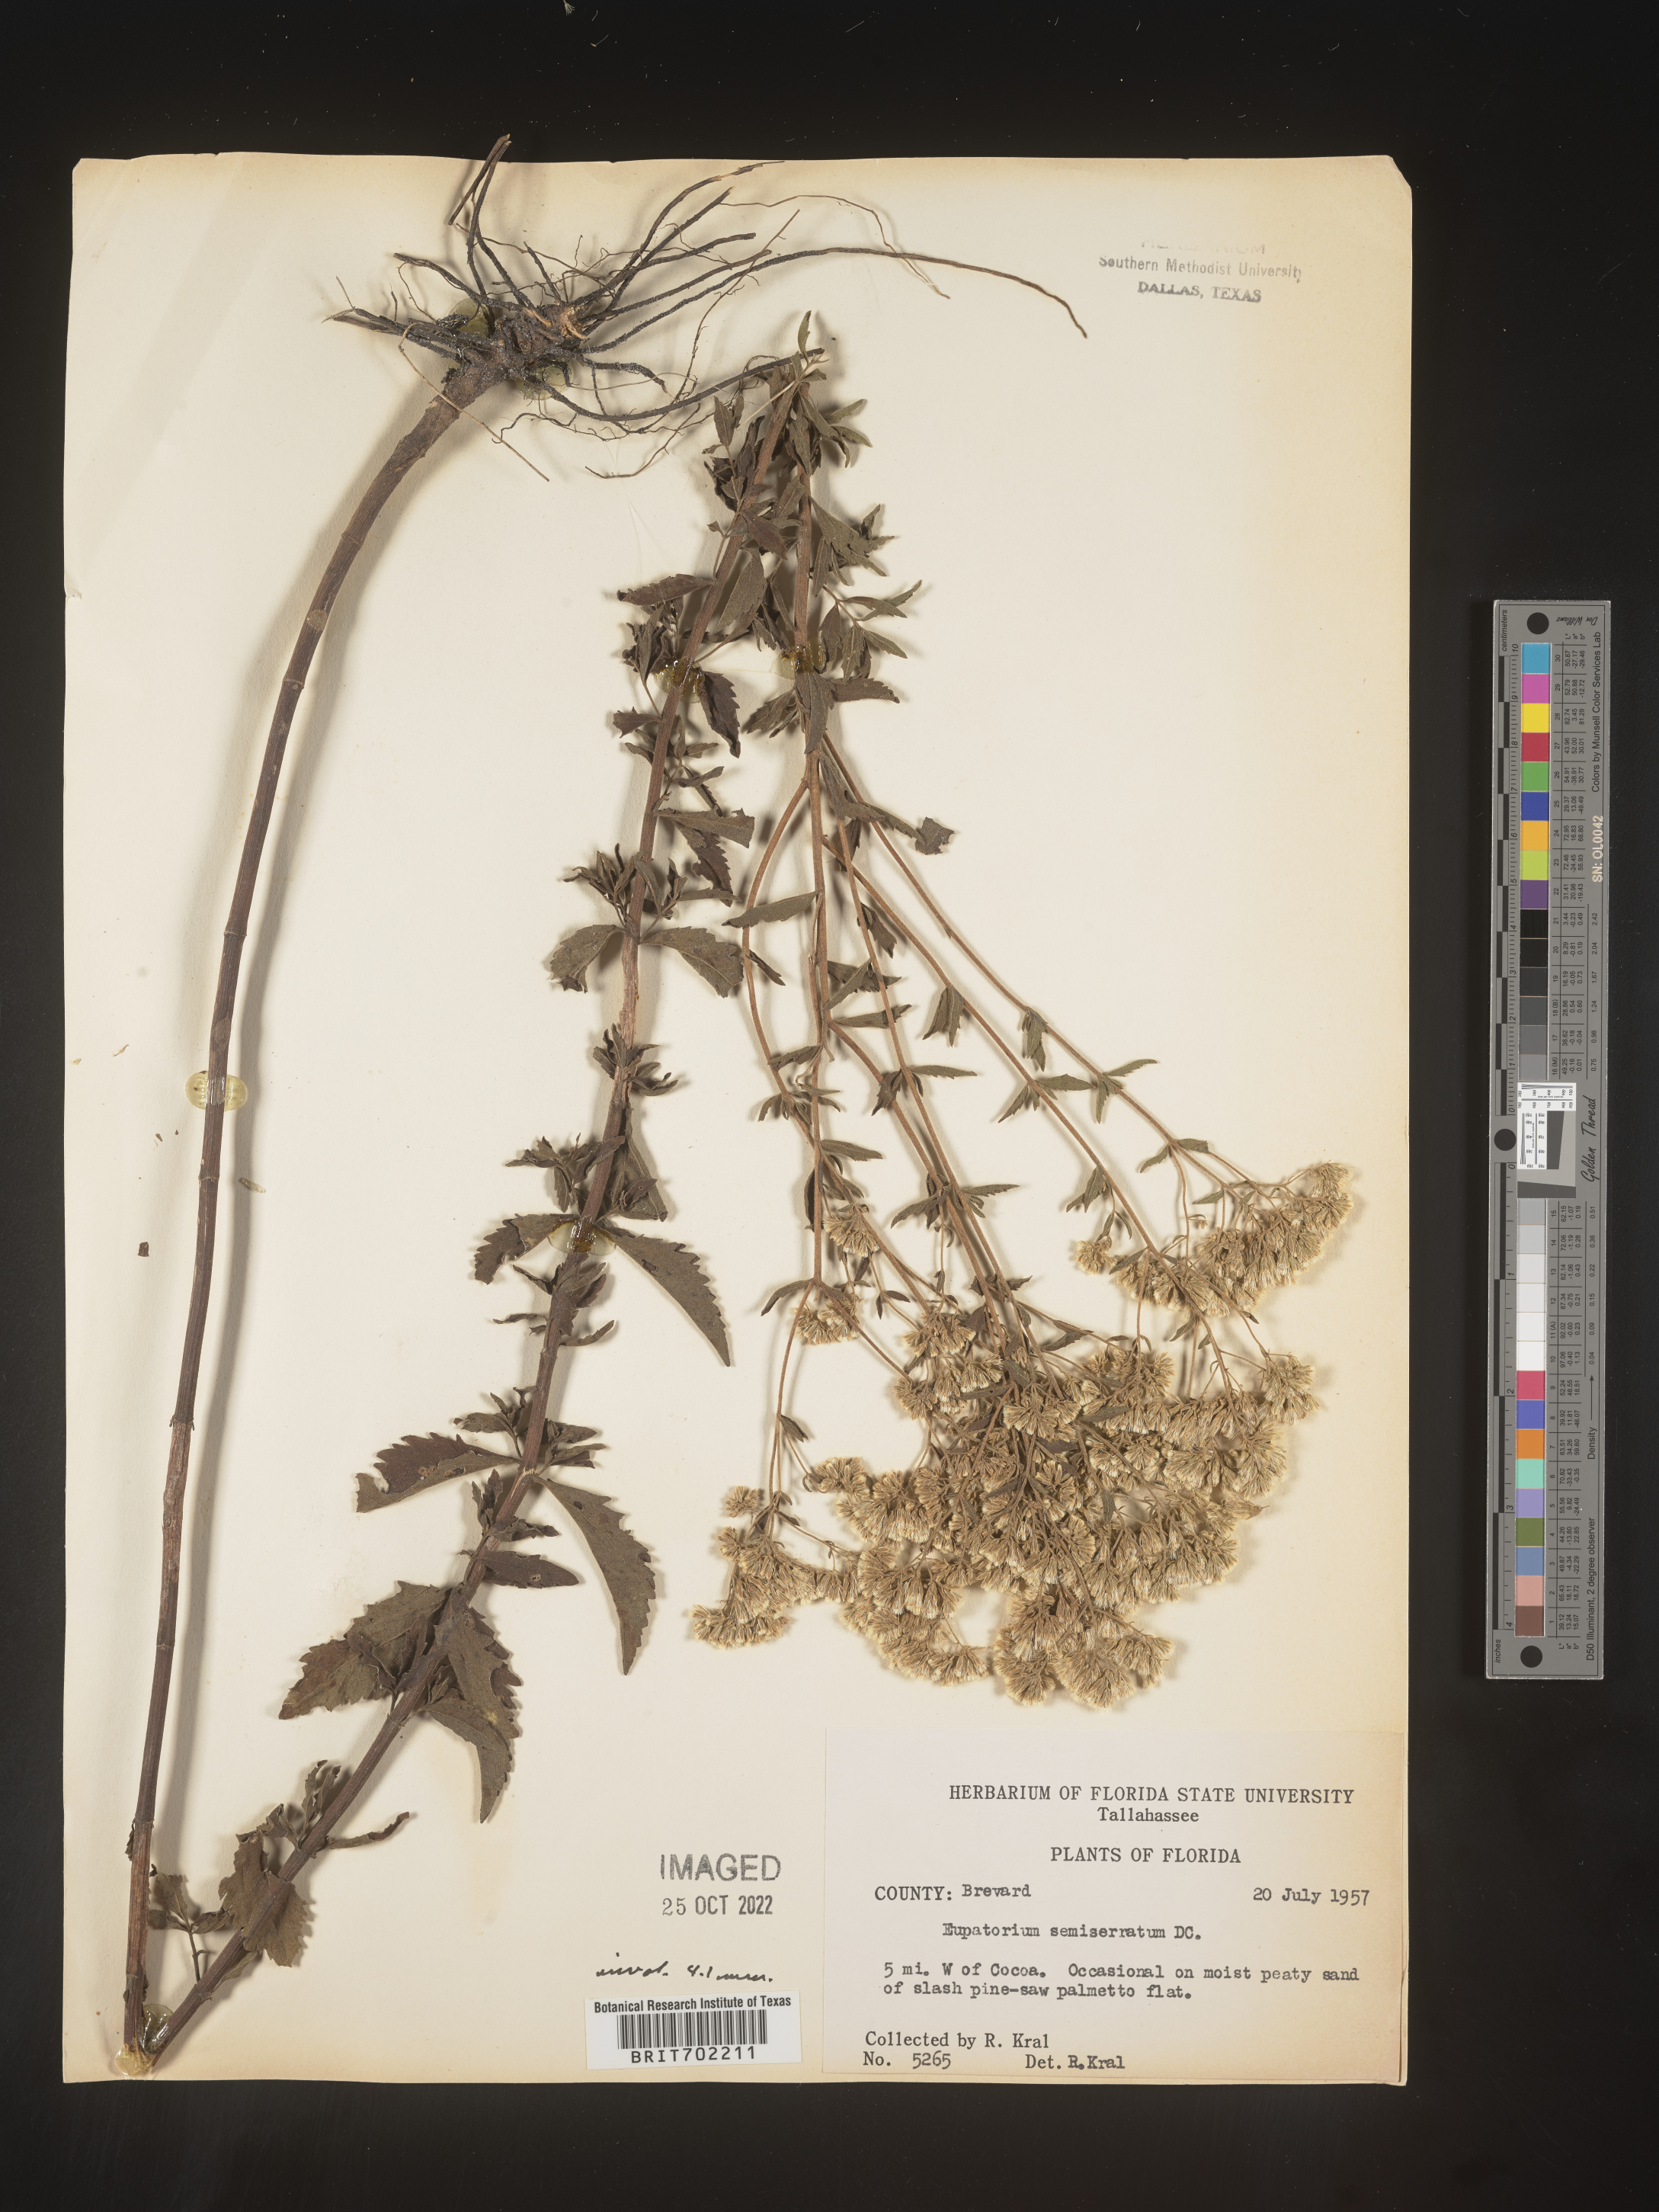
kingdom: Plantae
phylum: Tracheophyta
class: Magnoliopsida
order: Asterales
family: Asteraceae
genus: Eupatorium
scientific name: Eupatorium semiserratum
